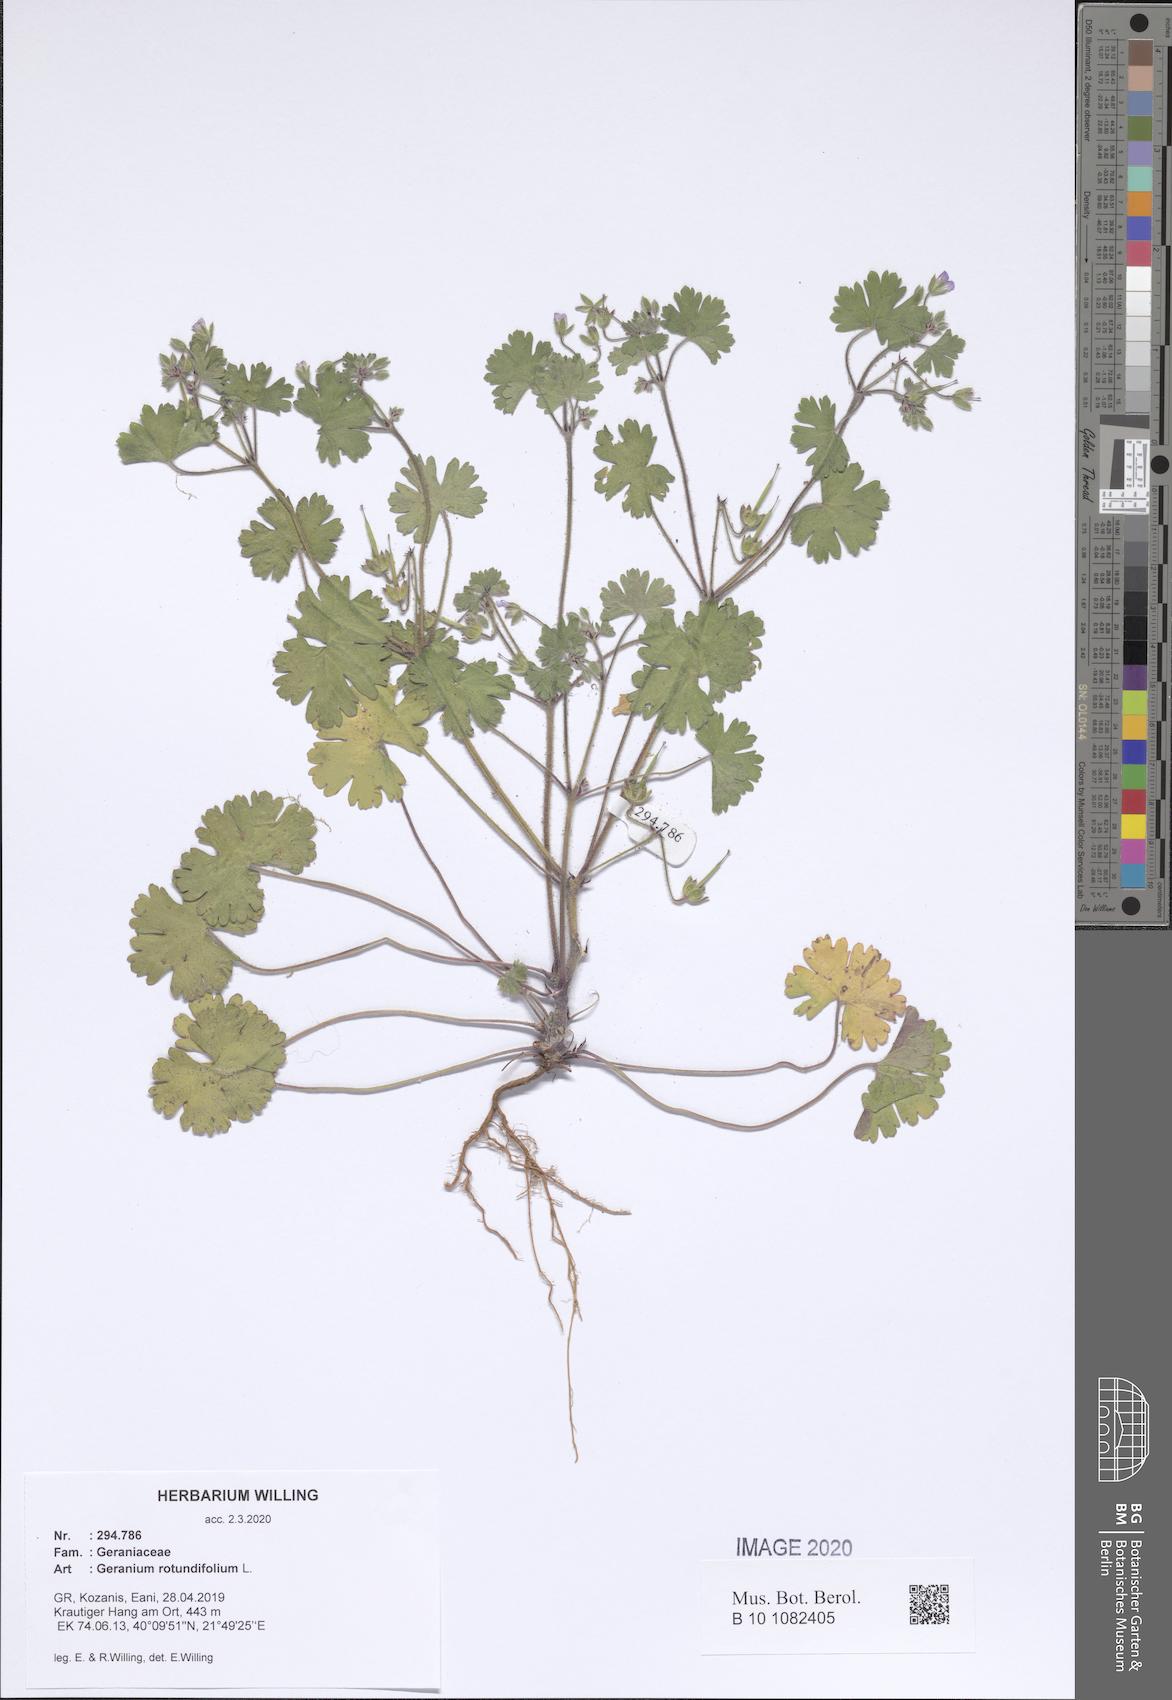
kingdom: Plantae
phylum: Tracheophyta
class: Magnoliopsida
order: Geraniales
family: Geraniaceae
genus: Geranium
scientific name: Geranium rotundifolium
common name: Round-leaved crane's-bill
